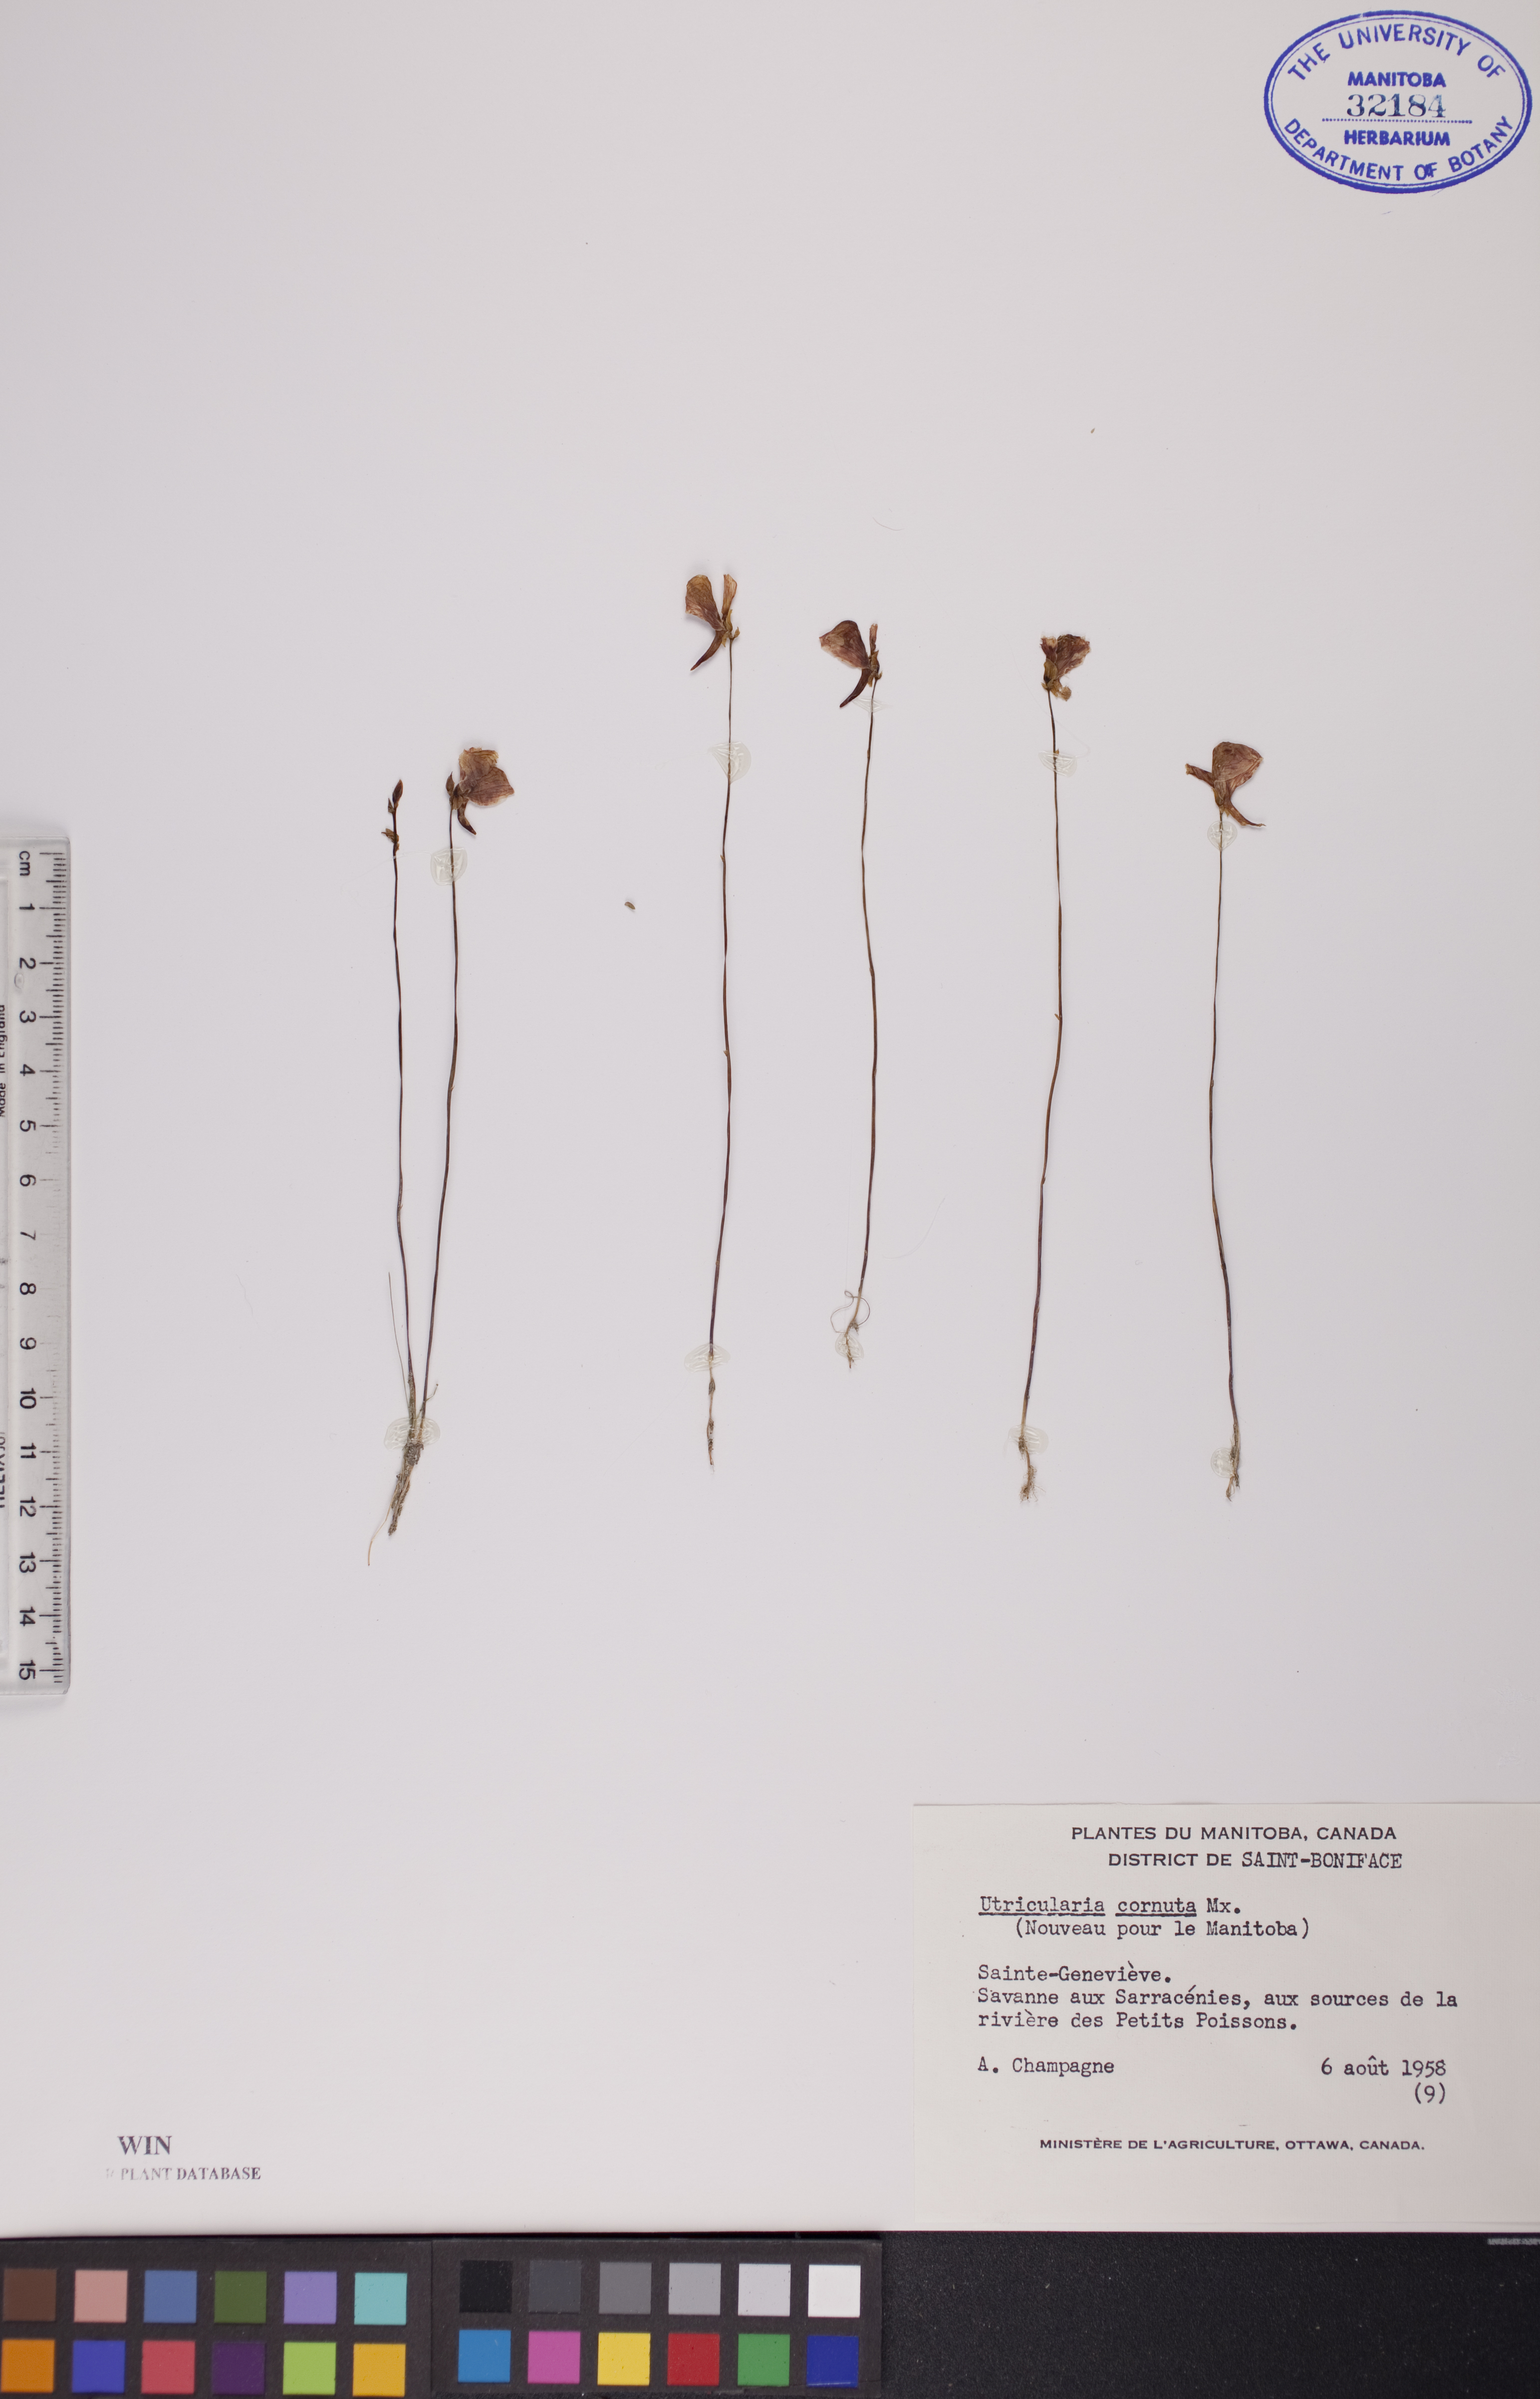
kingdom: Plantae
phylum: Tracheophyta
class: Magnoliopsida
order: Lamiales
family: Lentibulariaceae
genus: Utricularia
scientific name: Utricularia cornuta
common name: Horned bladderwort
